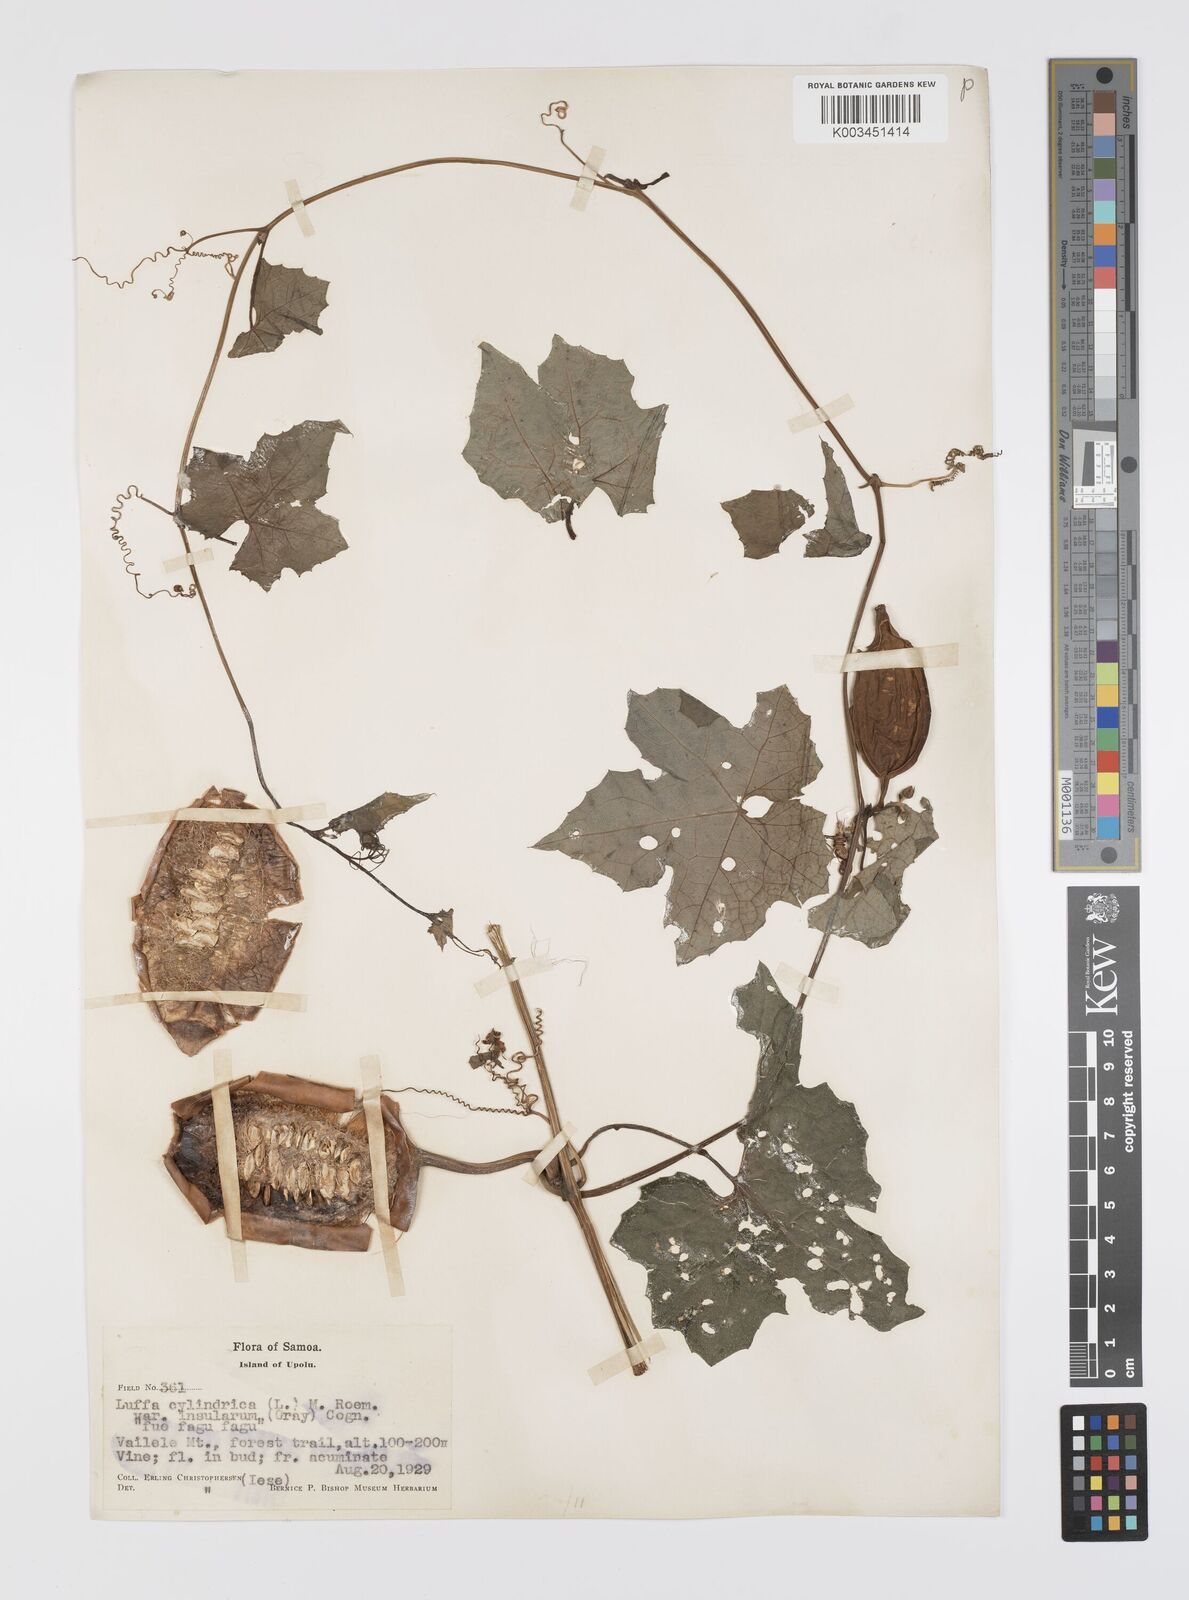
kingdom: Plantae
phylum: Tracheophyta
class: Magnoliopsida
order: Cucurbitales
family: Cucurbitaceae
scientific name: Cucurbitaceae
